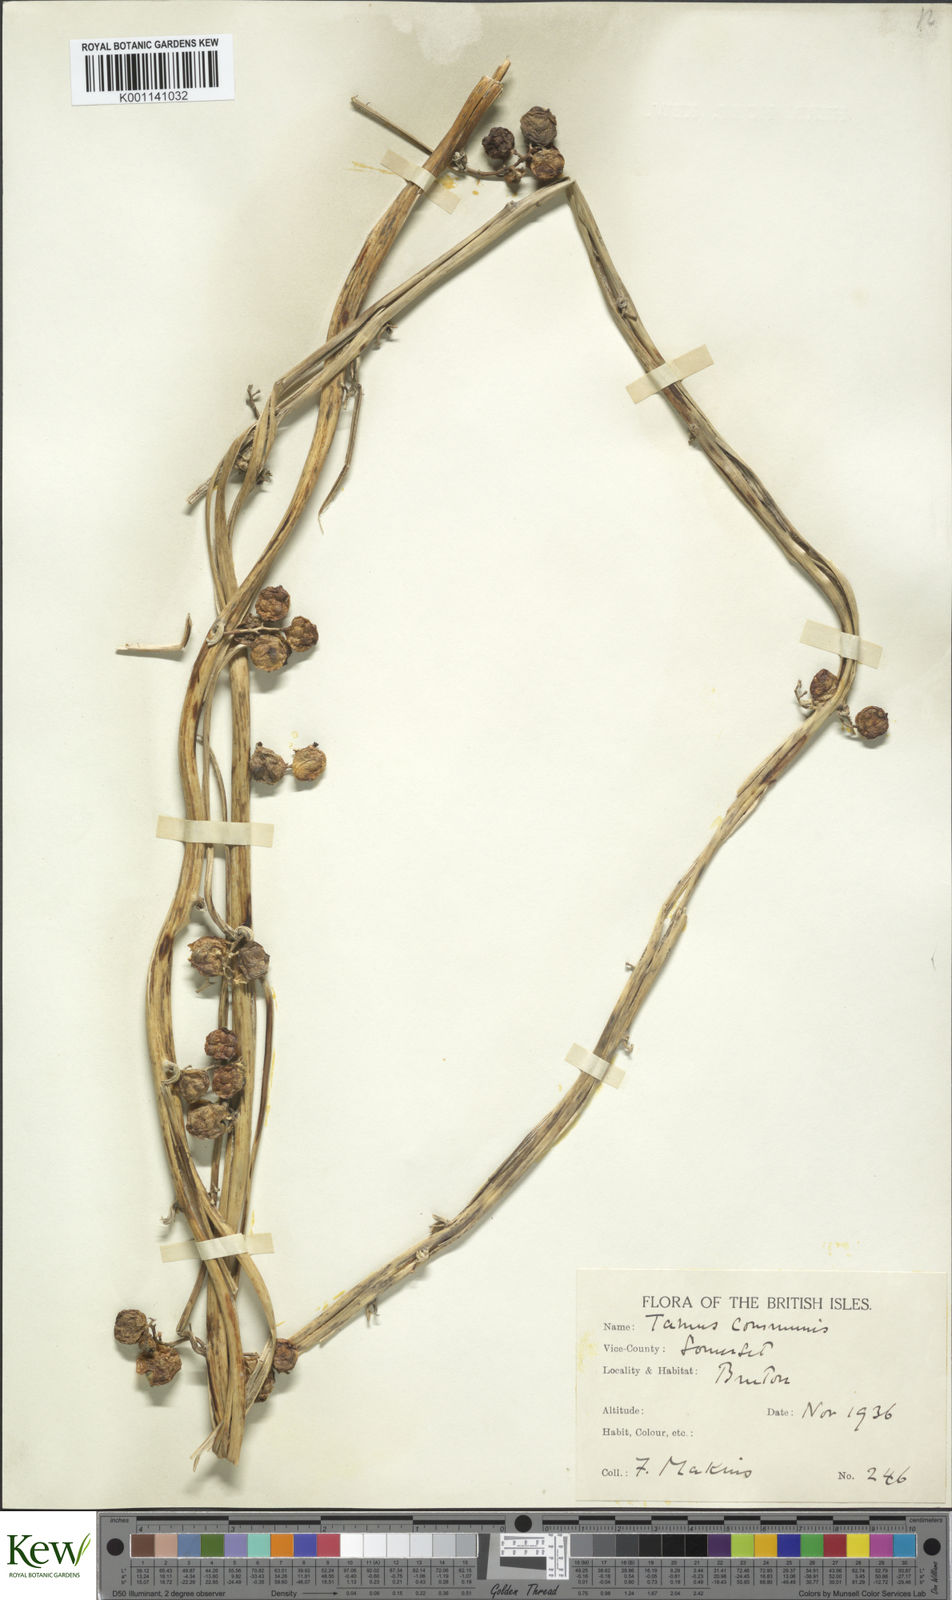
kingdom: Plantae
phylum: Tracheophyta
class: Liliopsida
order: Dioscoreales
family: Dioscoreaceae
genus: Dioscorea
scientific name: Dioscorea communis
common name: Black-bindweed
